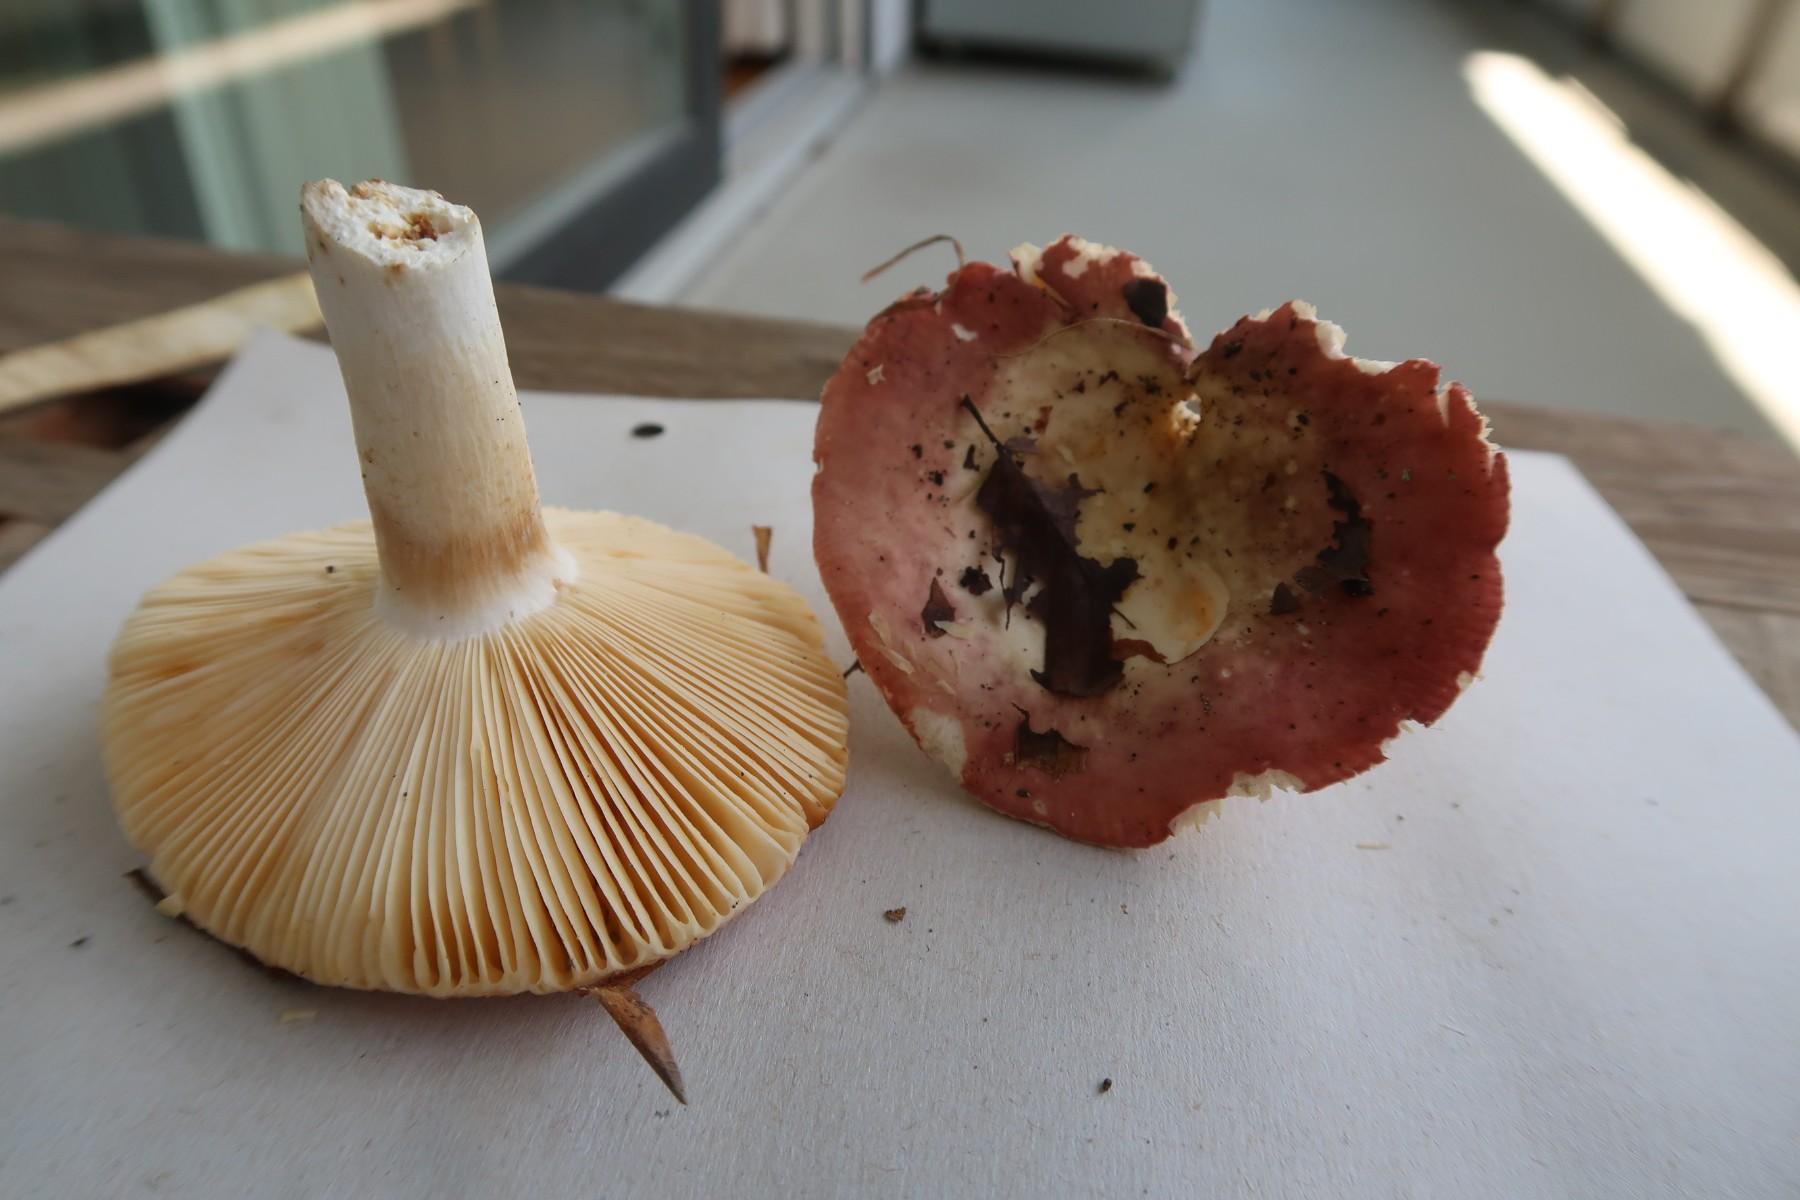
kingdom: Fungi
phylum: Basidiomycota
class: Agaricomycetes
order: Russulales
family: Russulaceae
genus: Russula
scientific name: Russula maculata
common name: plettet skørhat
